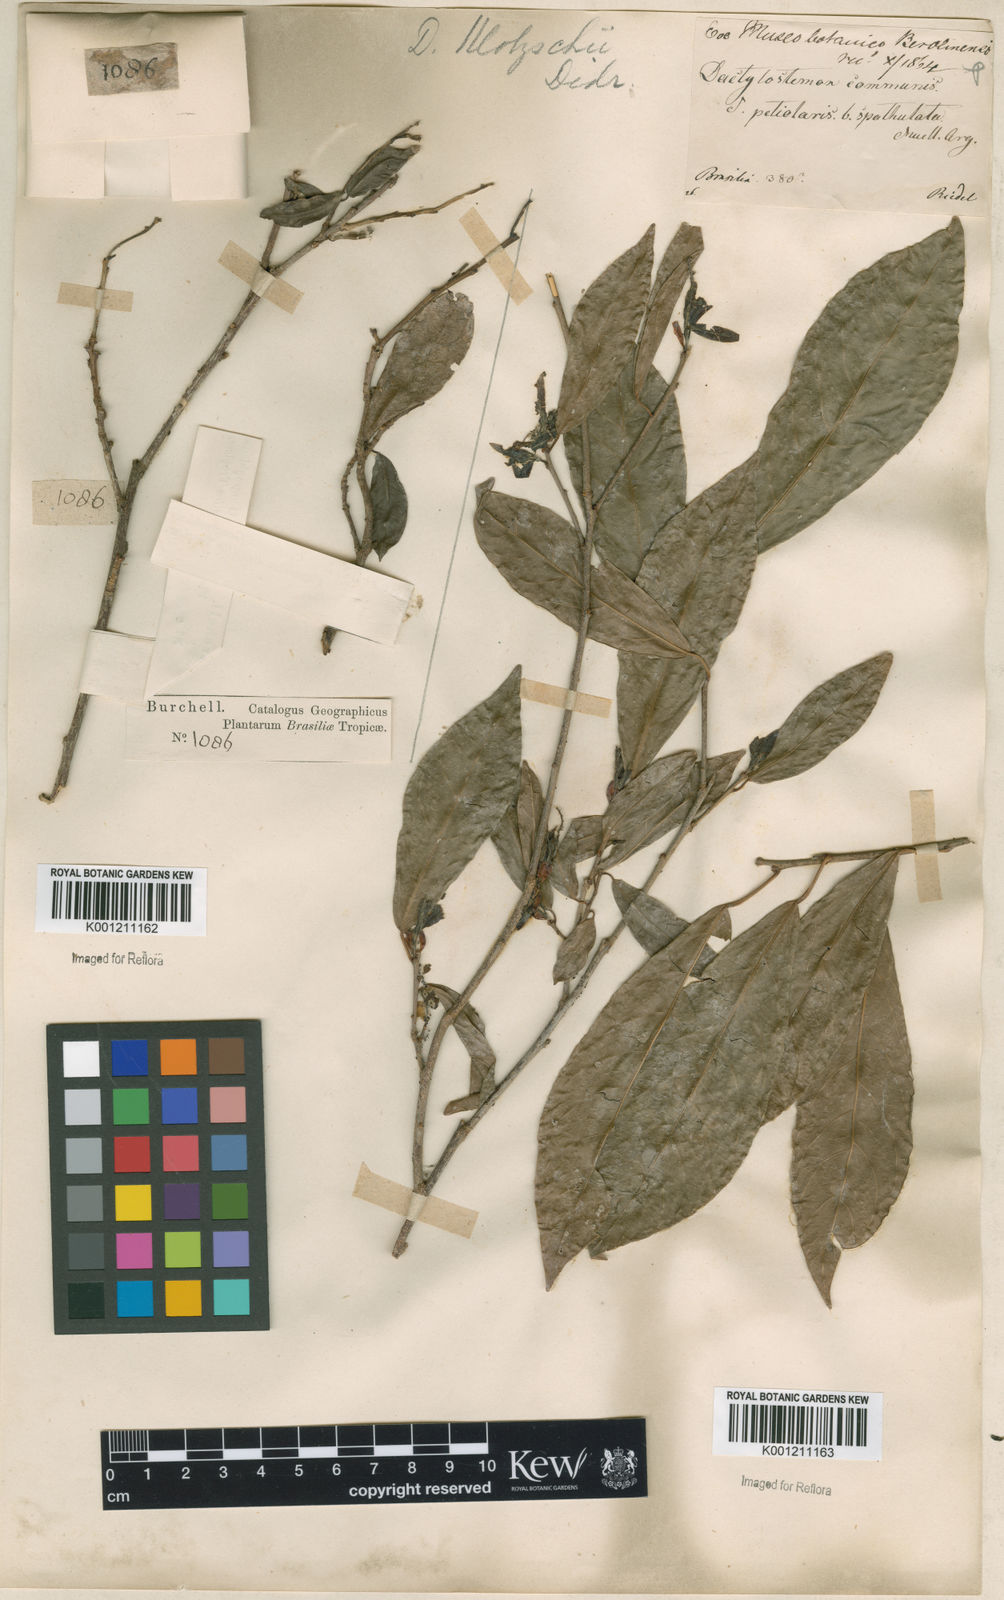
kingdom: Plantae
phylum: Tracheophyta
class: Magnoliopsida
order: Malpighiales
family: Euphorbiaceae
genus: Actinostemon
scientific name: Actinostemon klotzschii
